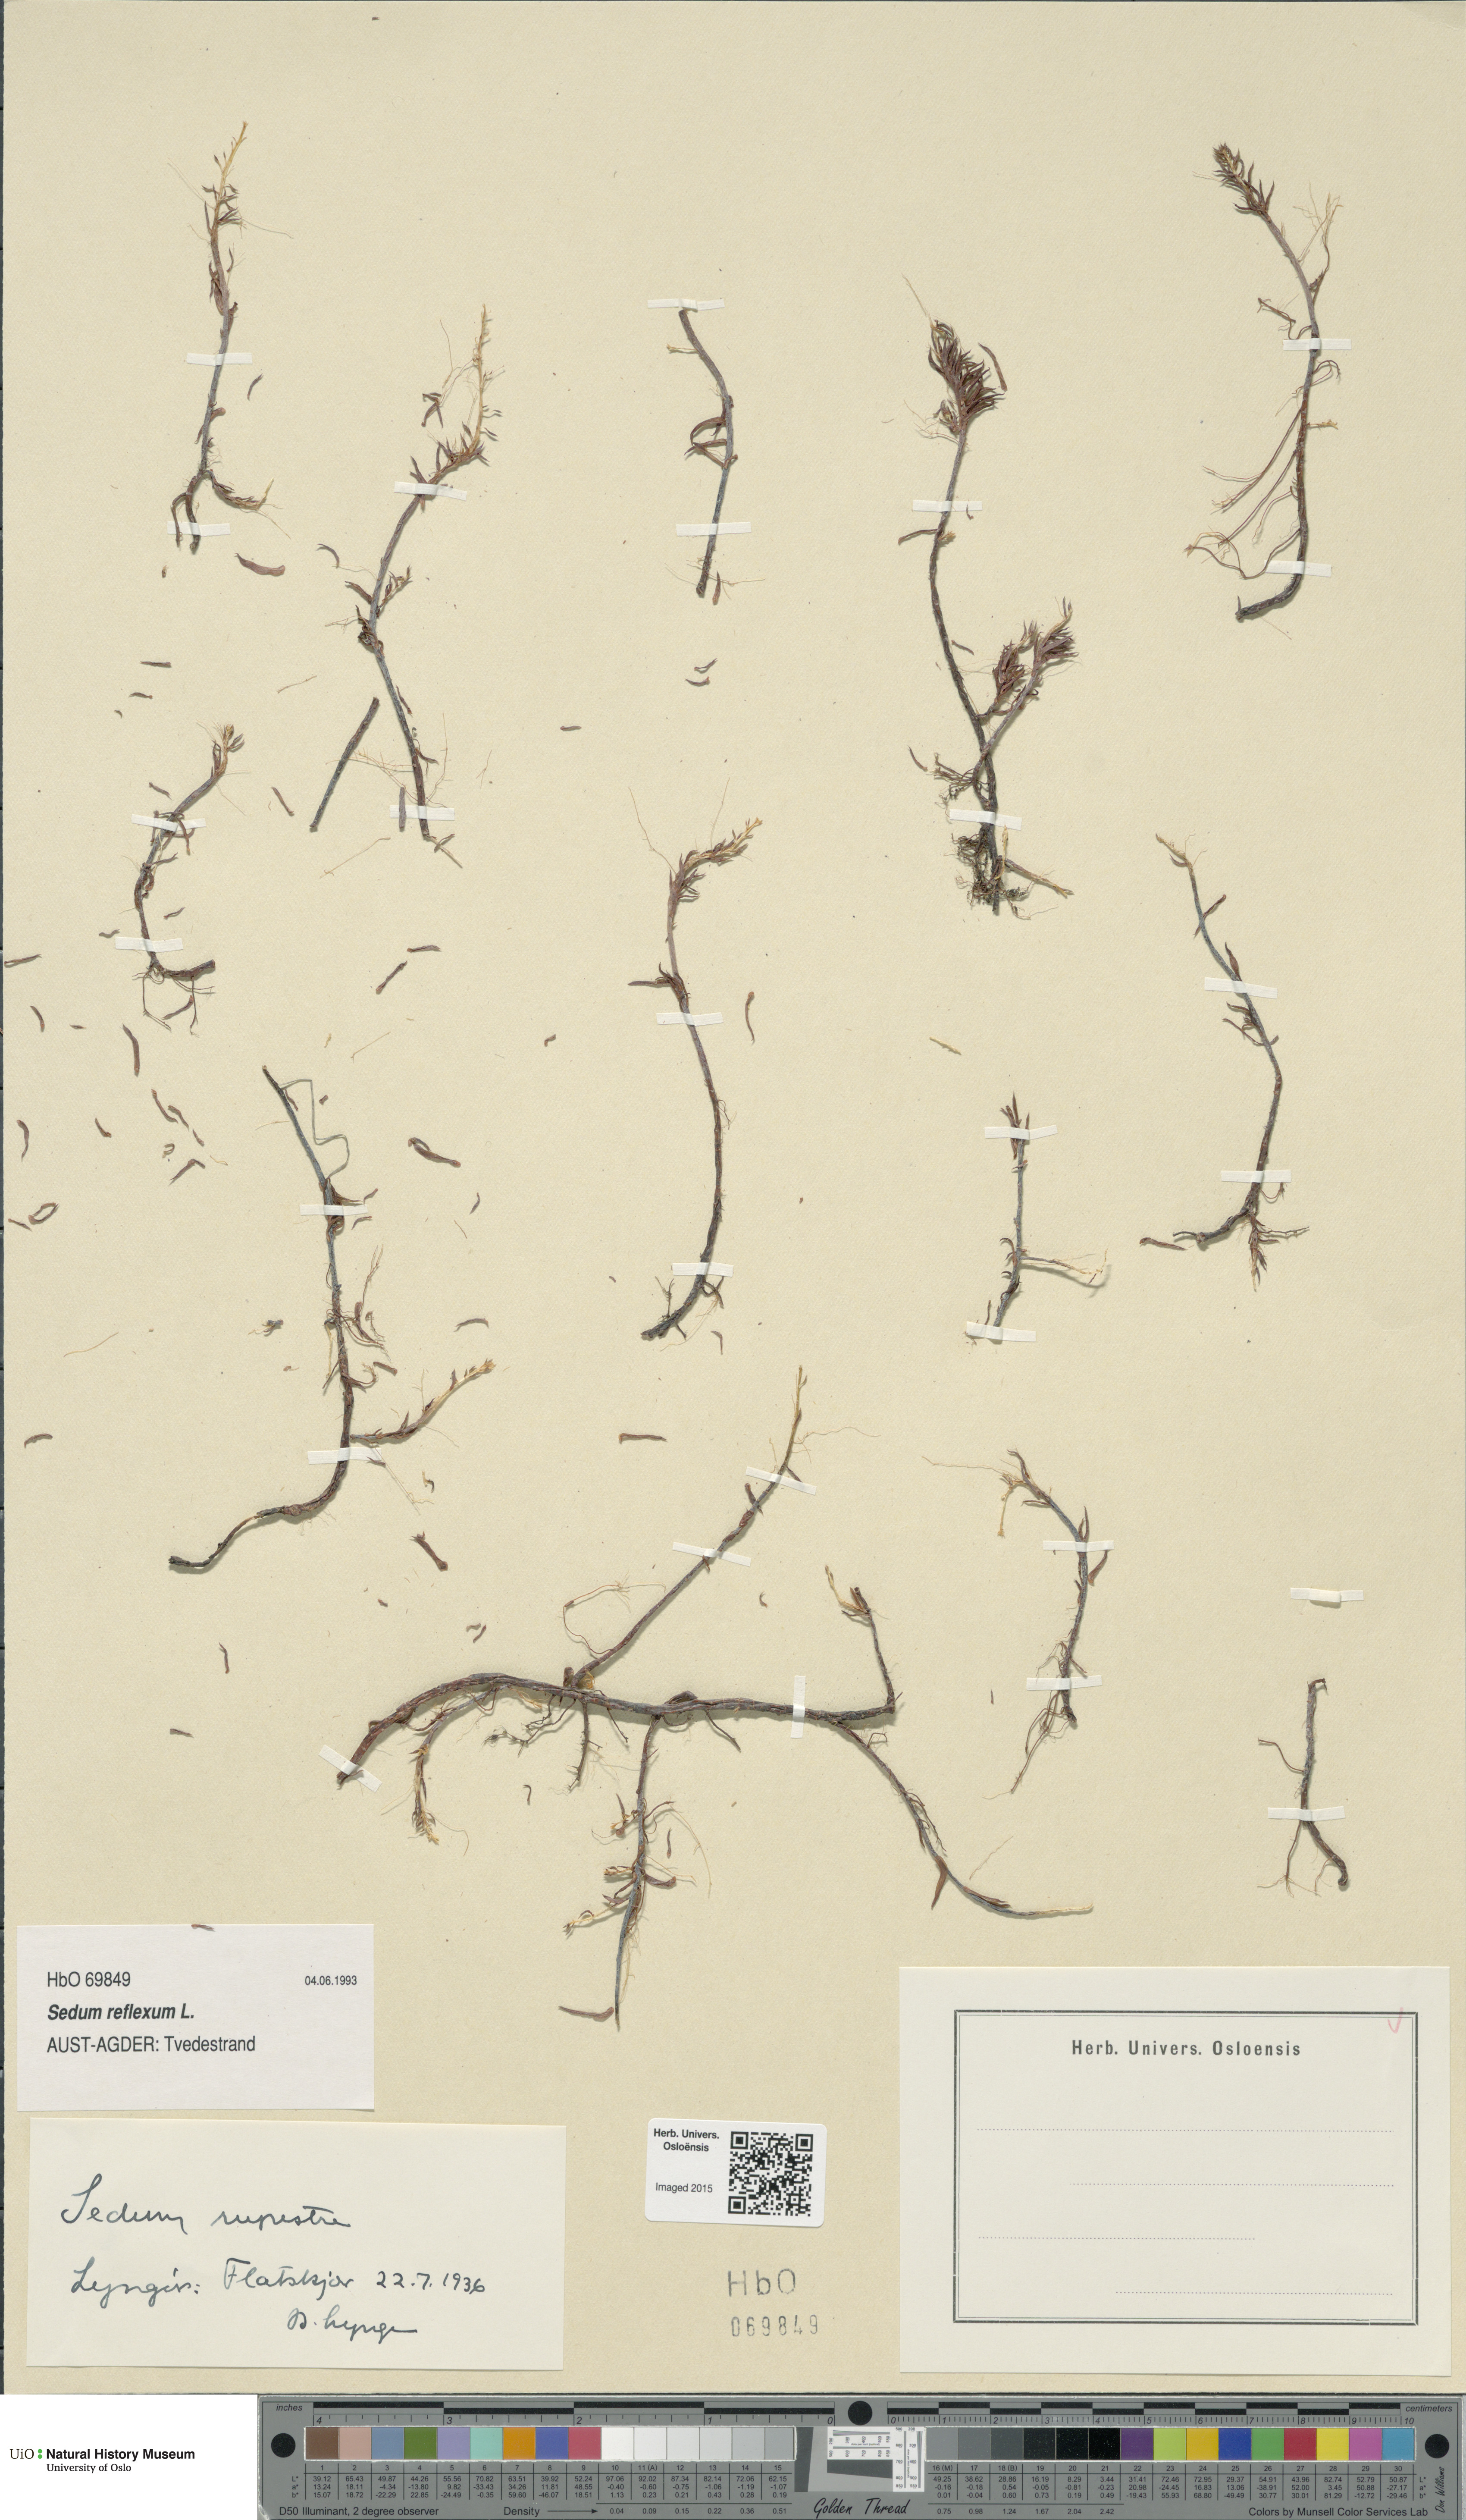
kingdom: Plantae
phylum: Tracheophyta
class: Magnoliopsida
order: Saxifragales
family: Crassulaceae
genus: Petrosedum
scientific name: Petrosedum rupestre
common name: Jenny's stonecrop
